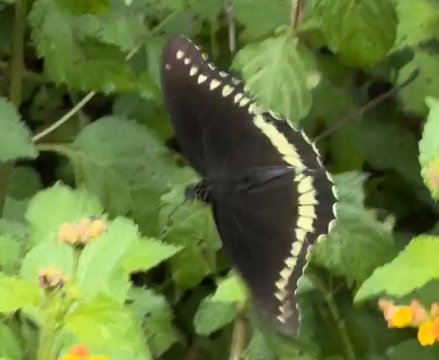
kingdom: Animalia
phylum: Arthropoda
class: Insecta
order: Lepidoptera
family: Papilionidae
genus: Battus
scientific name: Battus polydamas
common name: Polydamas Swallowtail
